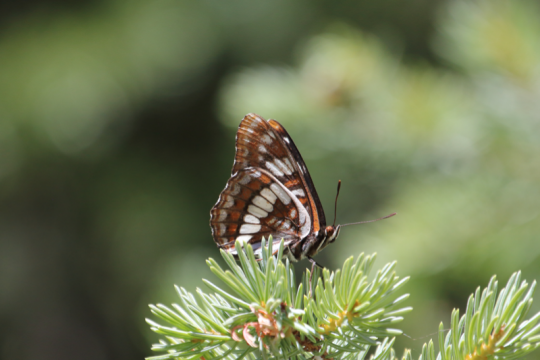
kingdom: Animalia
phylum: Arthropoda
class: Insecta
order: Lepidoptera
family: Nymphalidae
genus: Limenitis
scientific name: Limenitis lorquini
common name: Lorquin's Admiral
